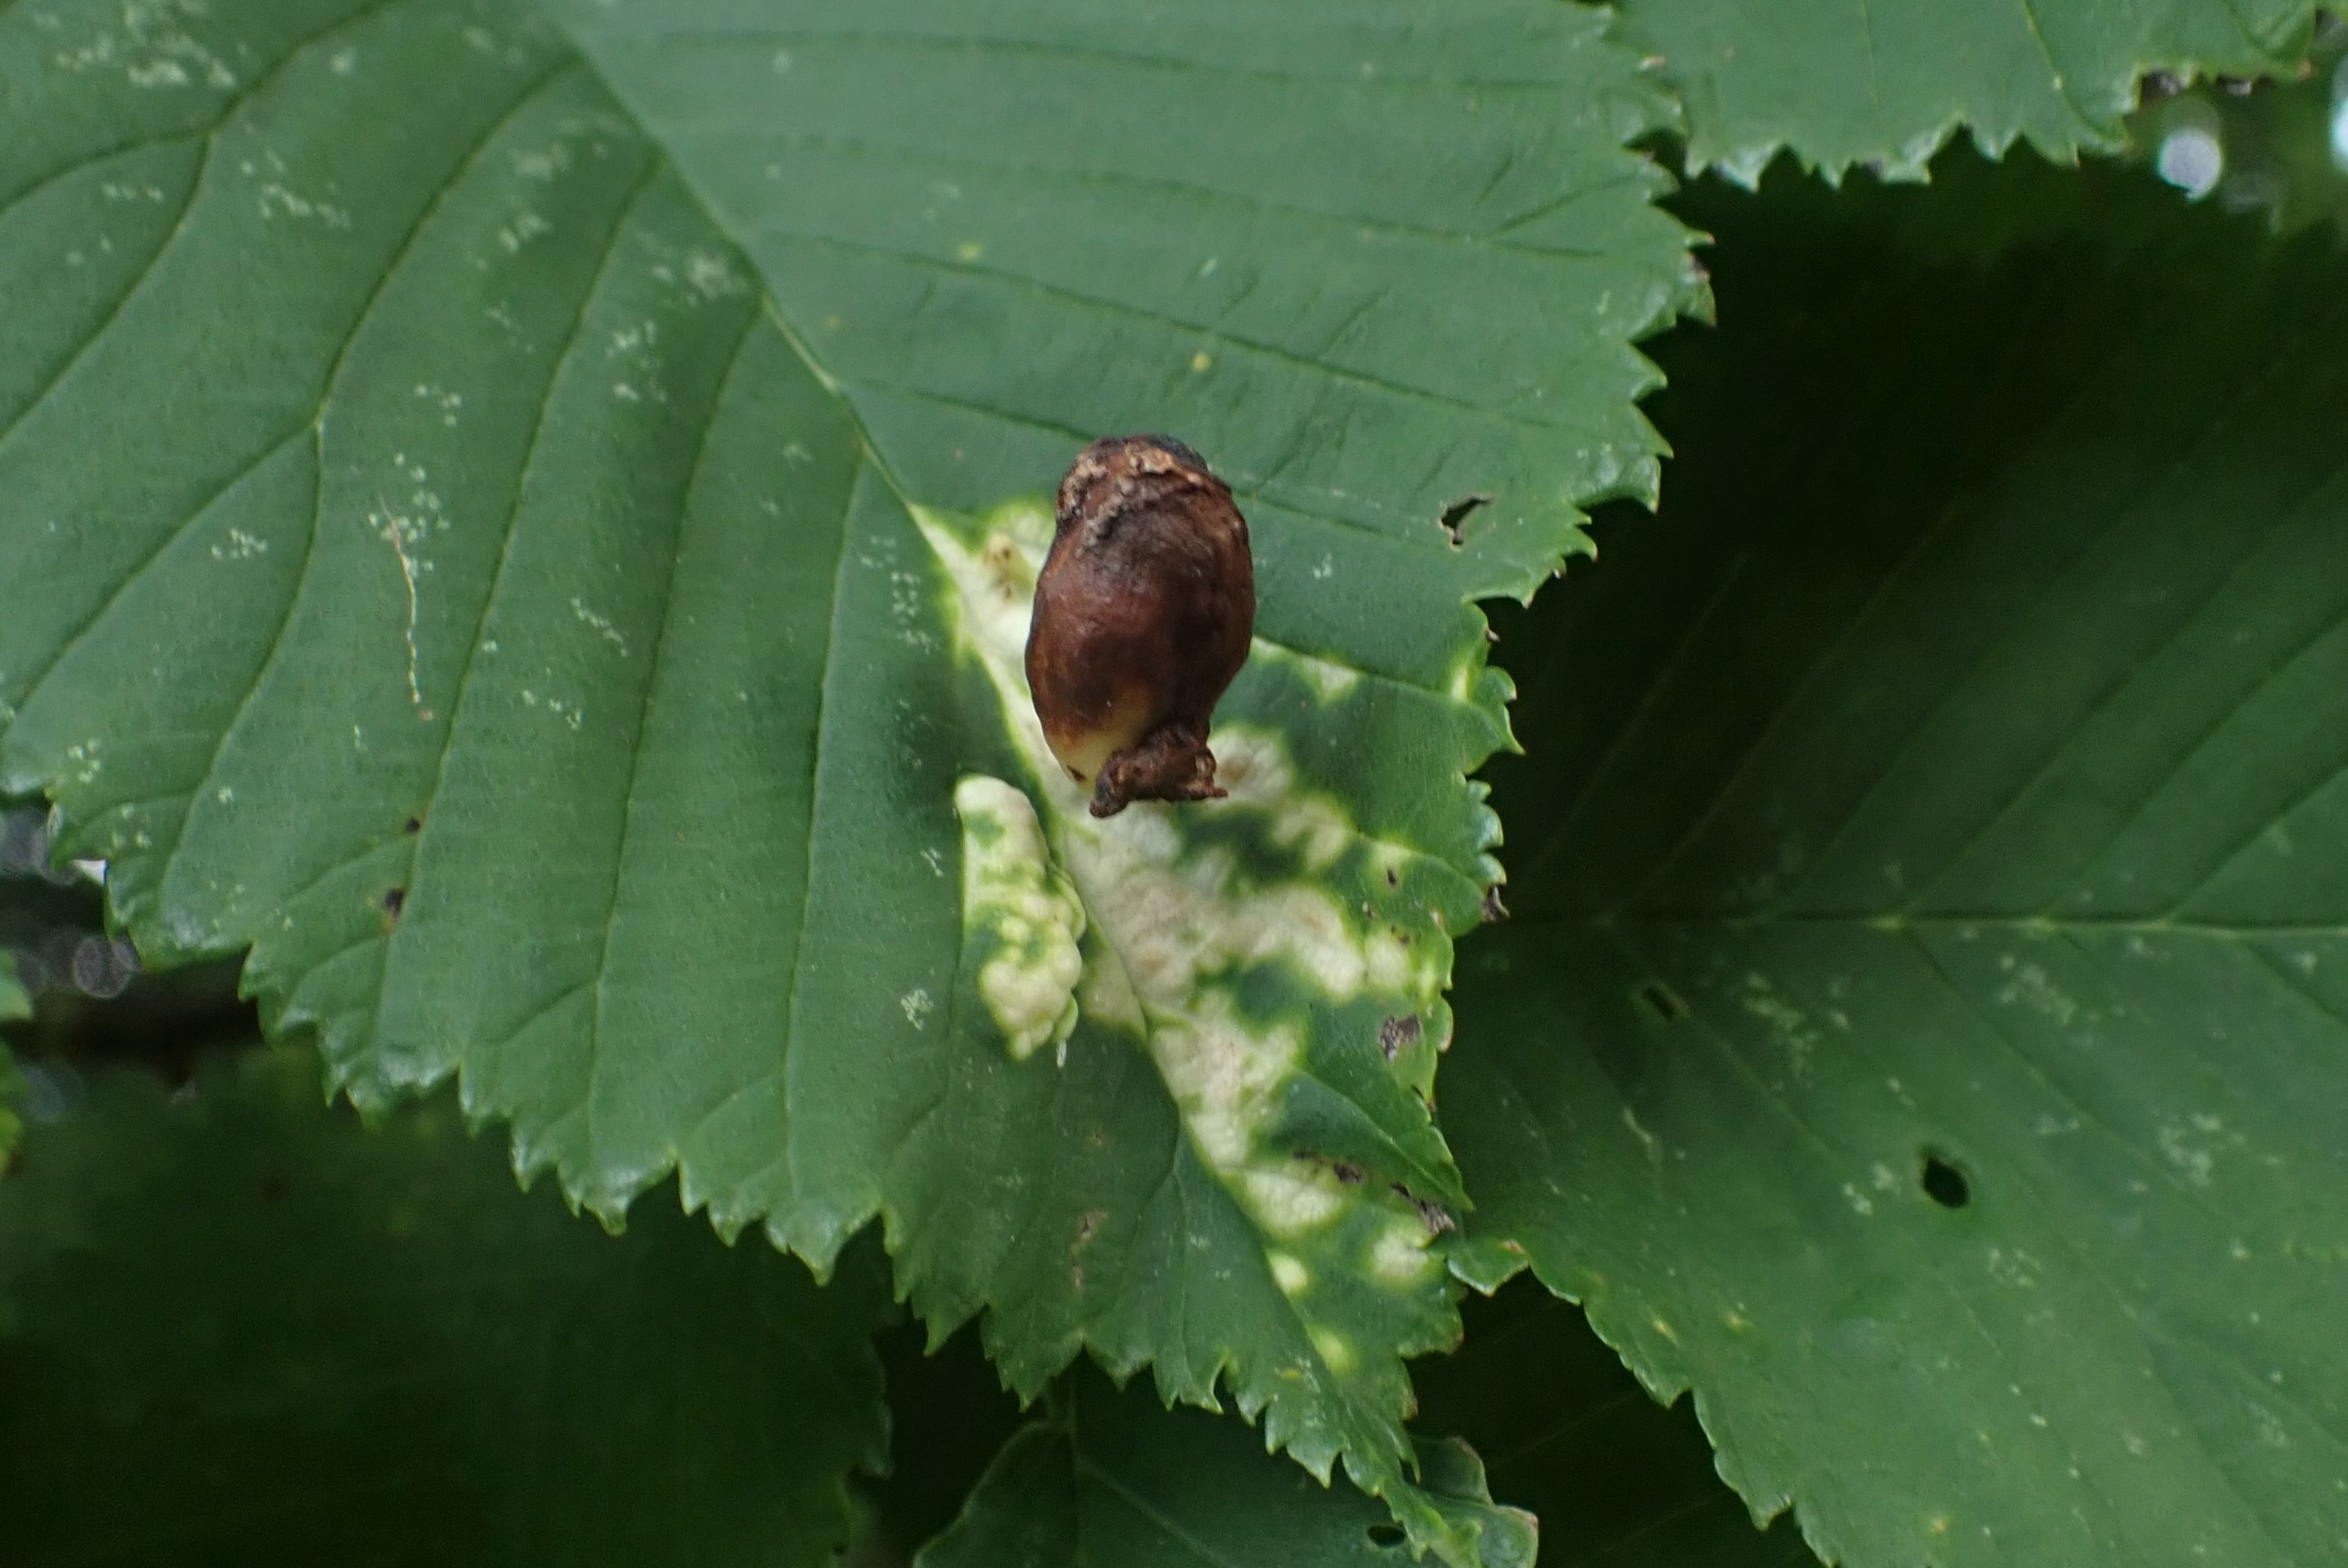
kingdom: Animalia
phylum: Arthropoda
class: Insecta
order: Hemiptera
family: Aphididae
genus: Tetraneura
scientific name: Tetraneura ulmi
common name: Elmegallelus
